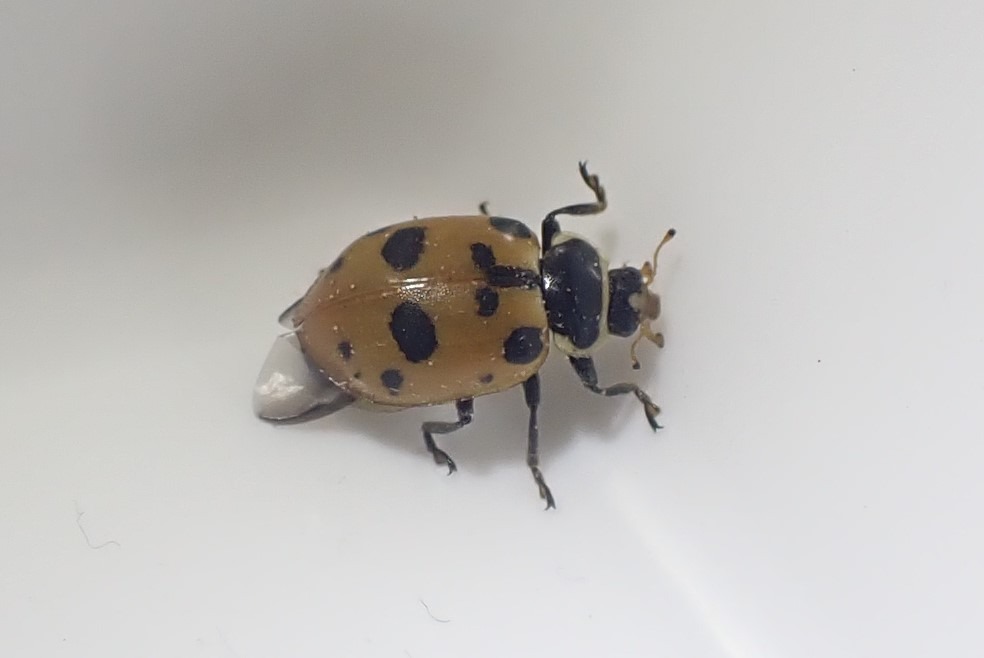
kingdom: Animalia
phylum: Arthropoda
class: Insecta
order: Coleoptera
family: Coccinellidae
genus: Hippodamia
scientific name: Hippodamia septemmaculata
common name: Syvprikket mariehøne
